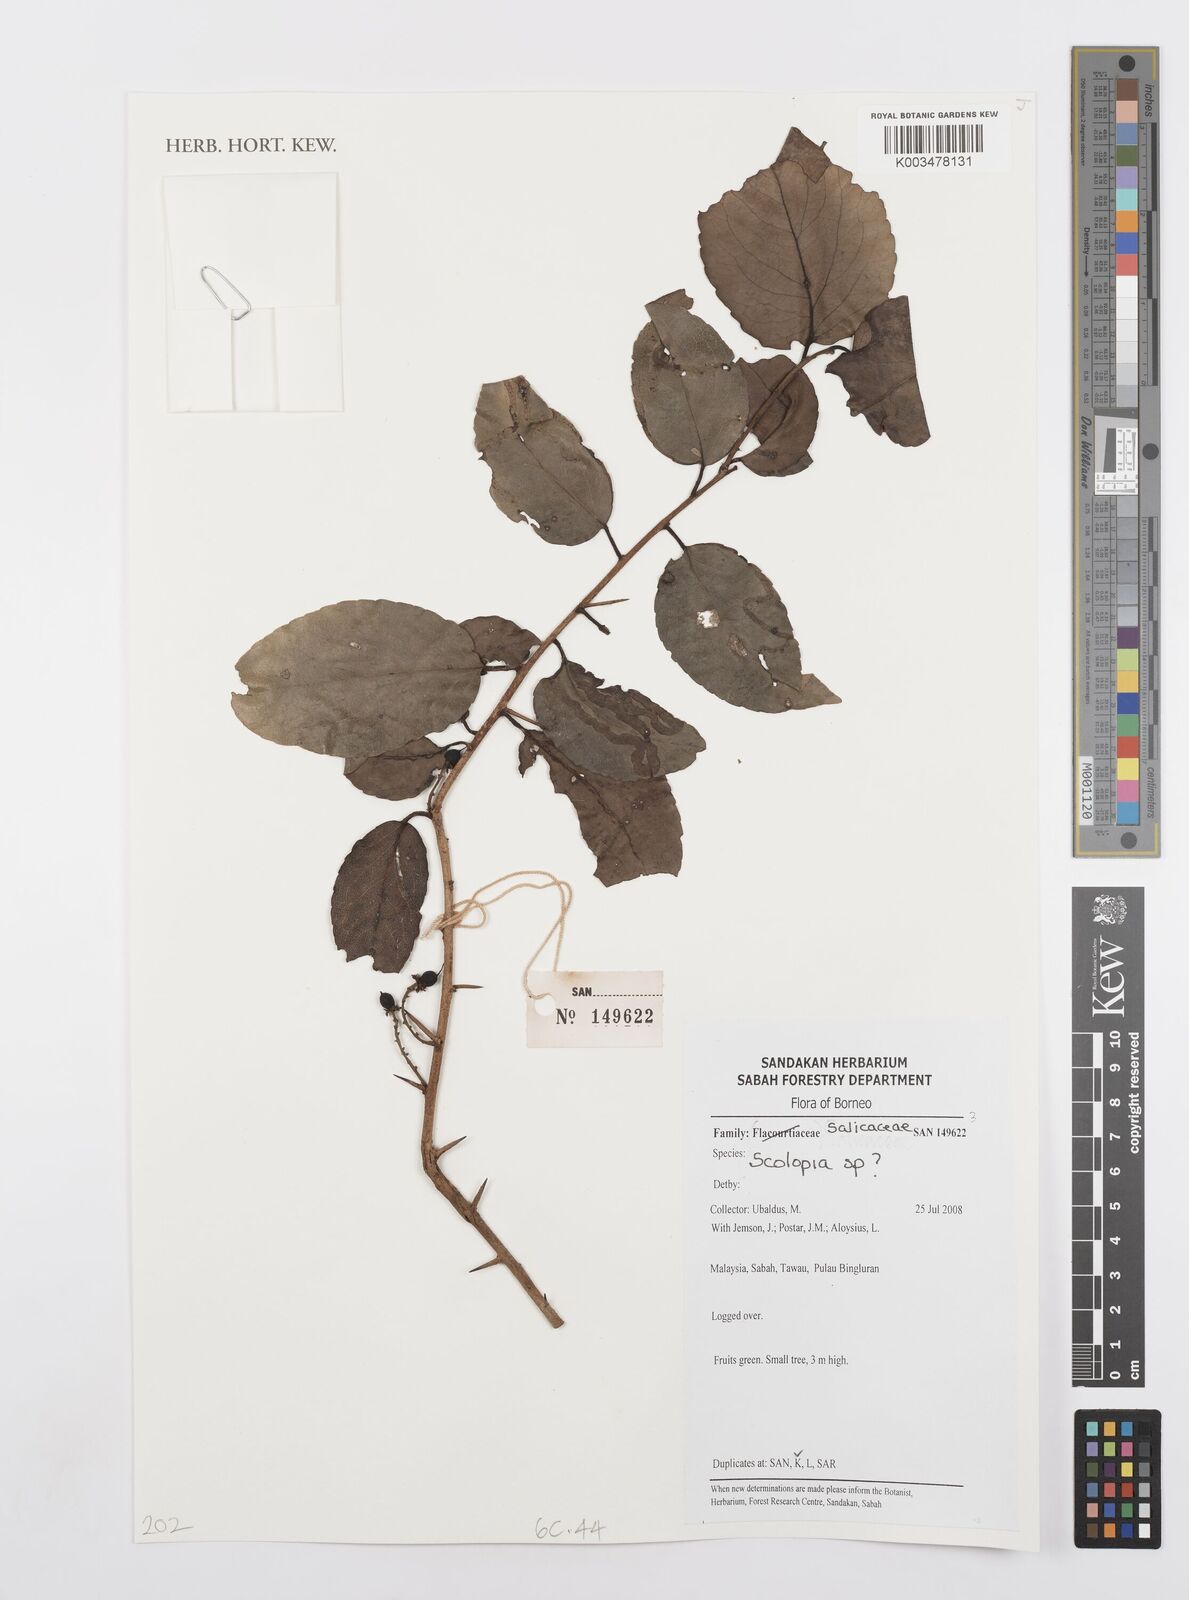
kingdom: Plantae
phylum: Tracheophyta
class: Magnoliopsida
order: Malpighiales
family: Salicaceae
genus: Scolopia
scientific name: Scolopia
